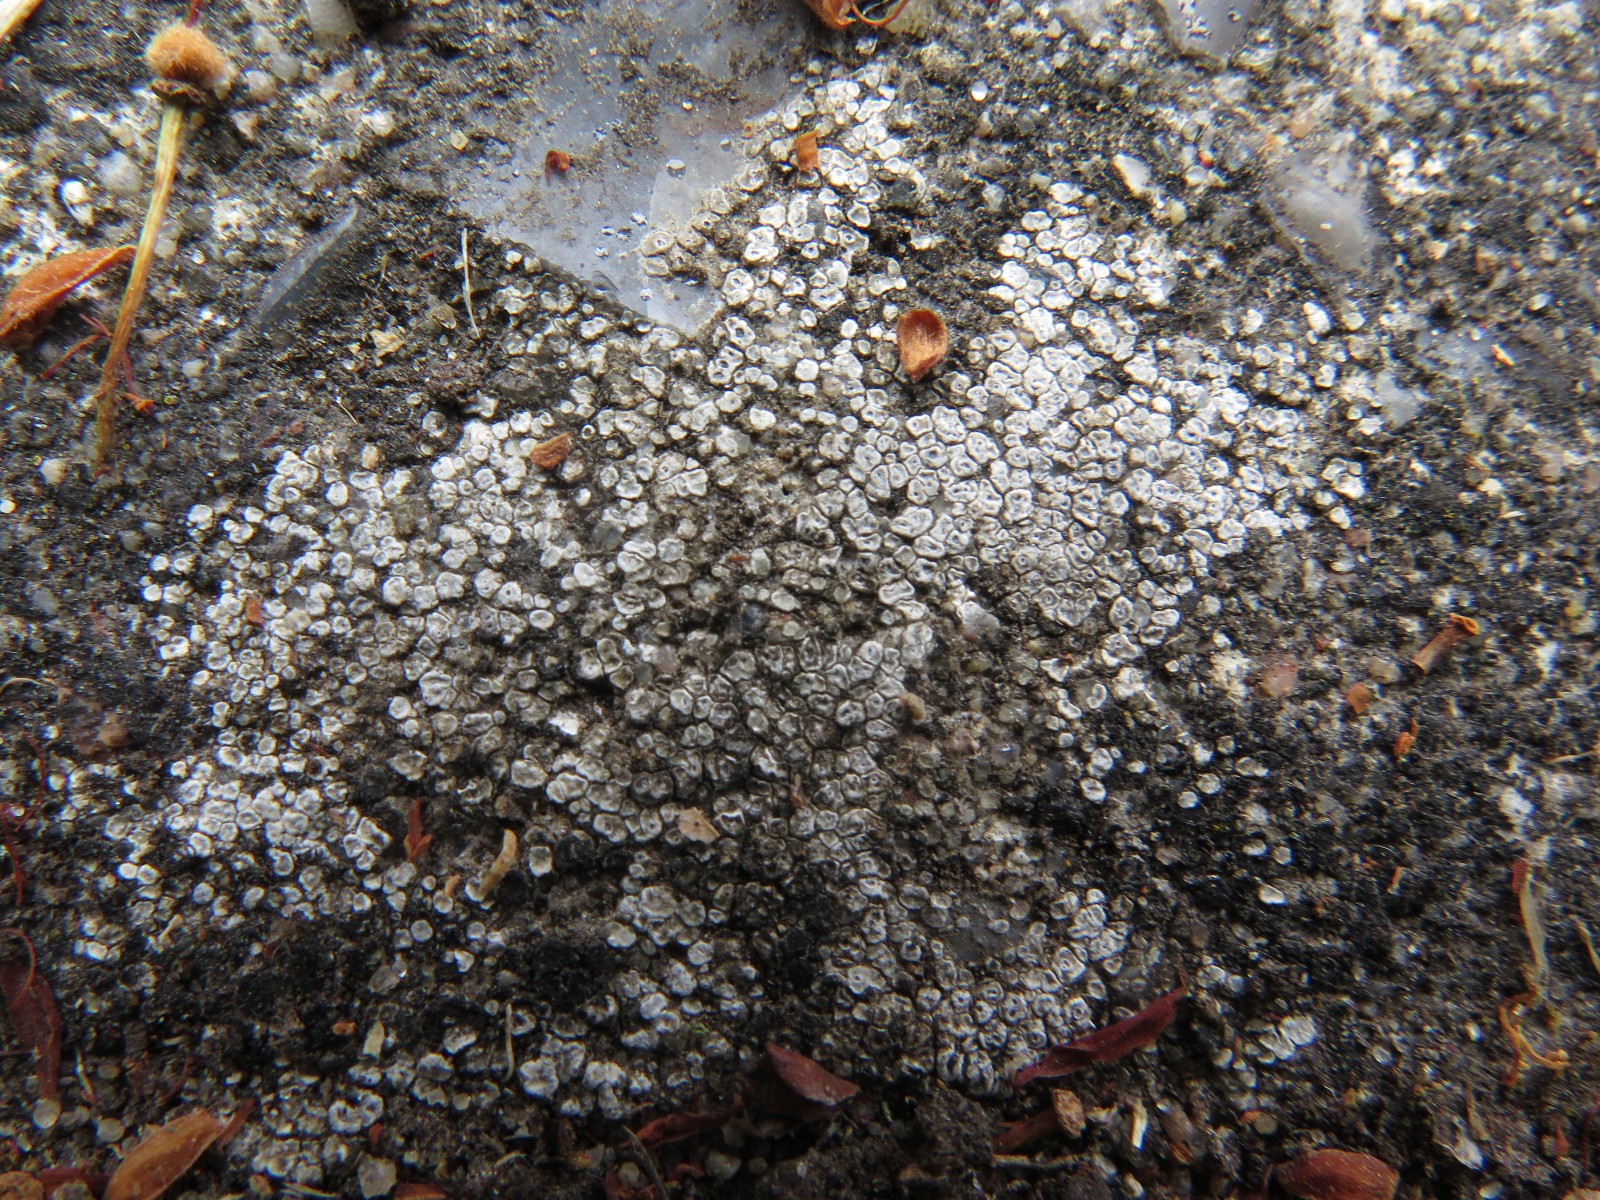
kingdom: Fungi
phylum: Ascomycota
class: Lecanoromycetes
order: Pertusariales
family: Megasporaceae
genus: Circinaria
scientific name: Circinaria contorta
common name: indviklet hulskivelav
